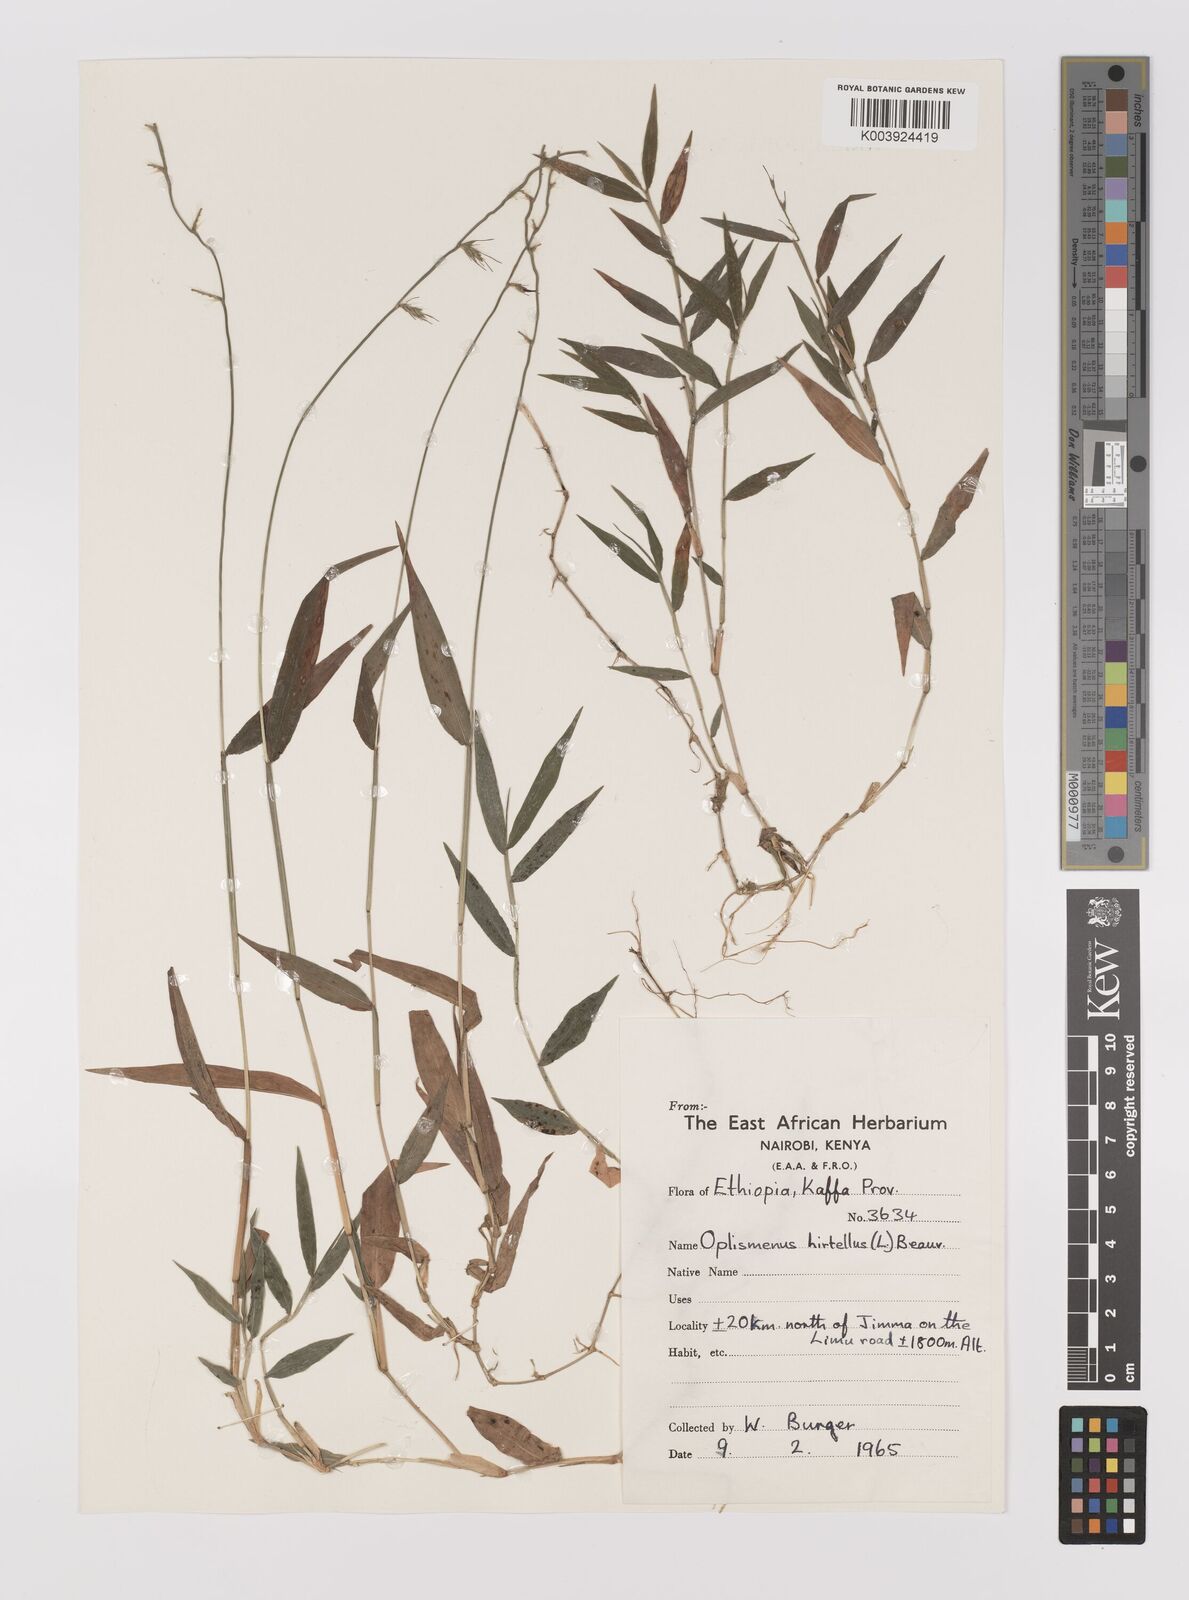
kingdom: Plantae
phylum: Tracheophyta
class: Liliopsida
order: Poales
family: Poaceae
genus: Oplismenus
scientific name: Oplismenus hirtellus
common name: Basketgrass
